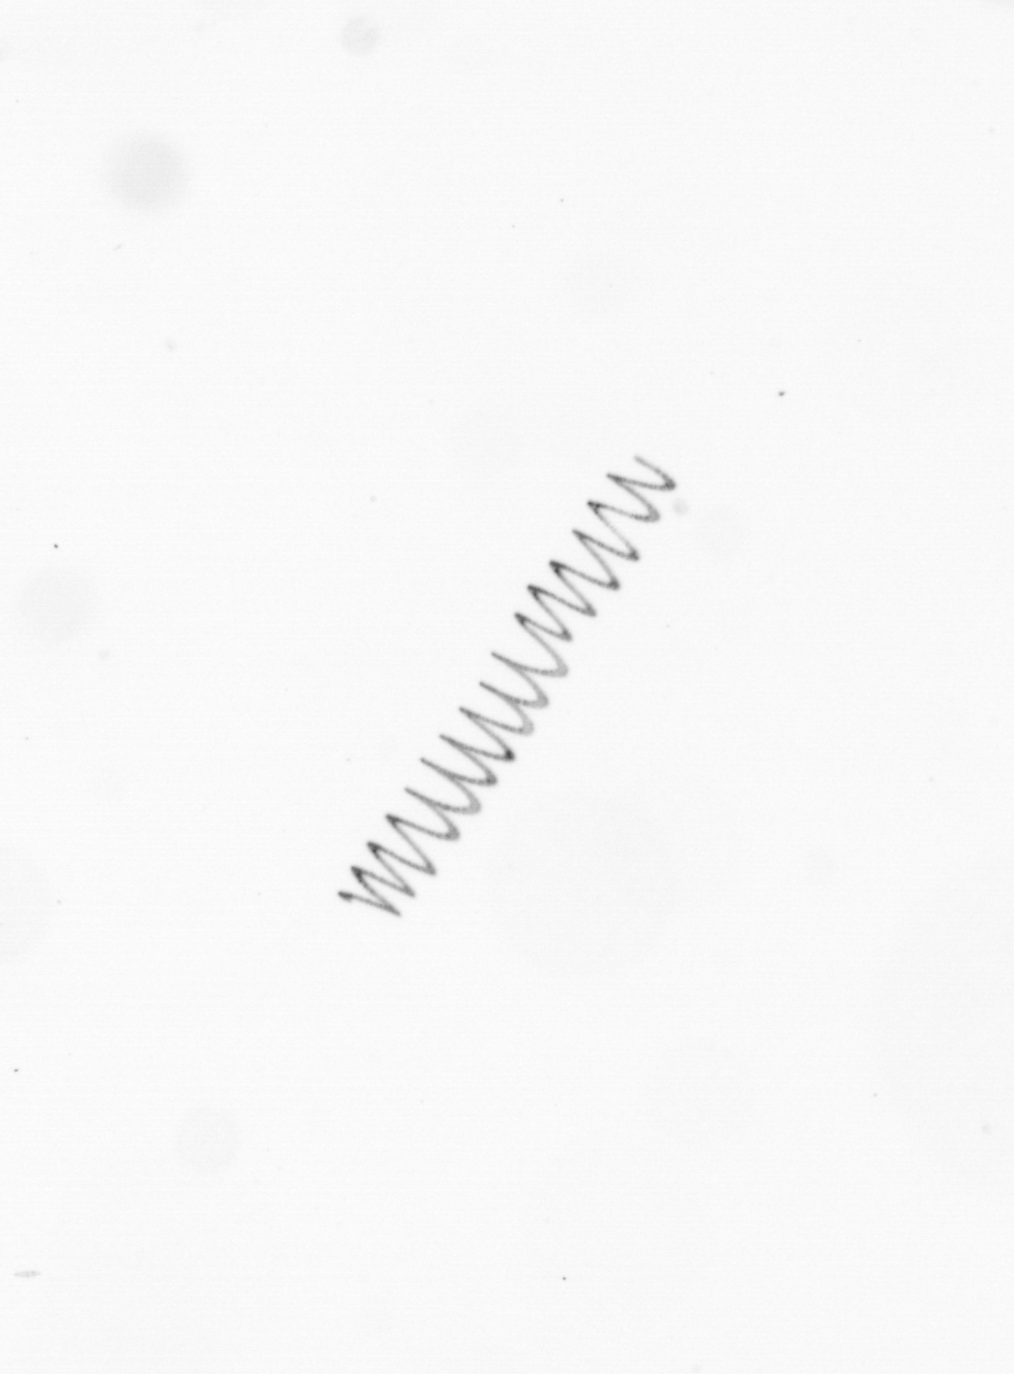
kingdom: Chromista
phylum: Ochrophyta
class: Bacillariophyceae
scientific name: Bacillariophyceae
